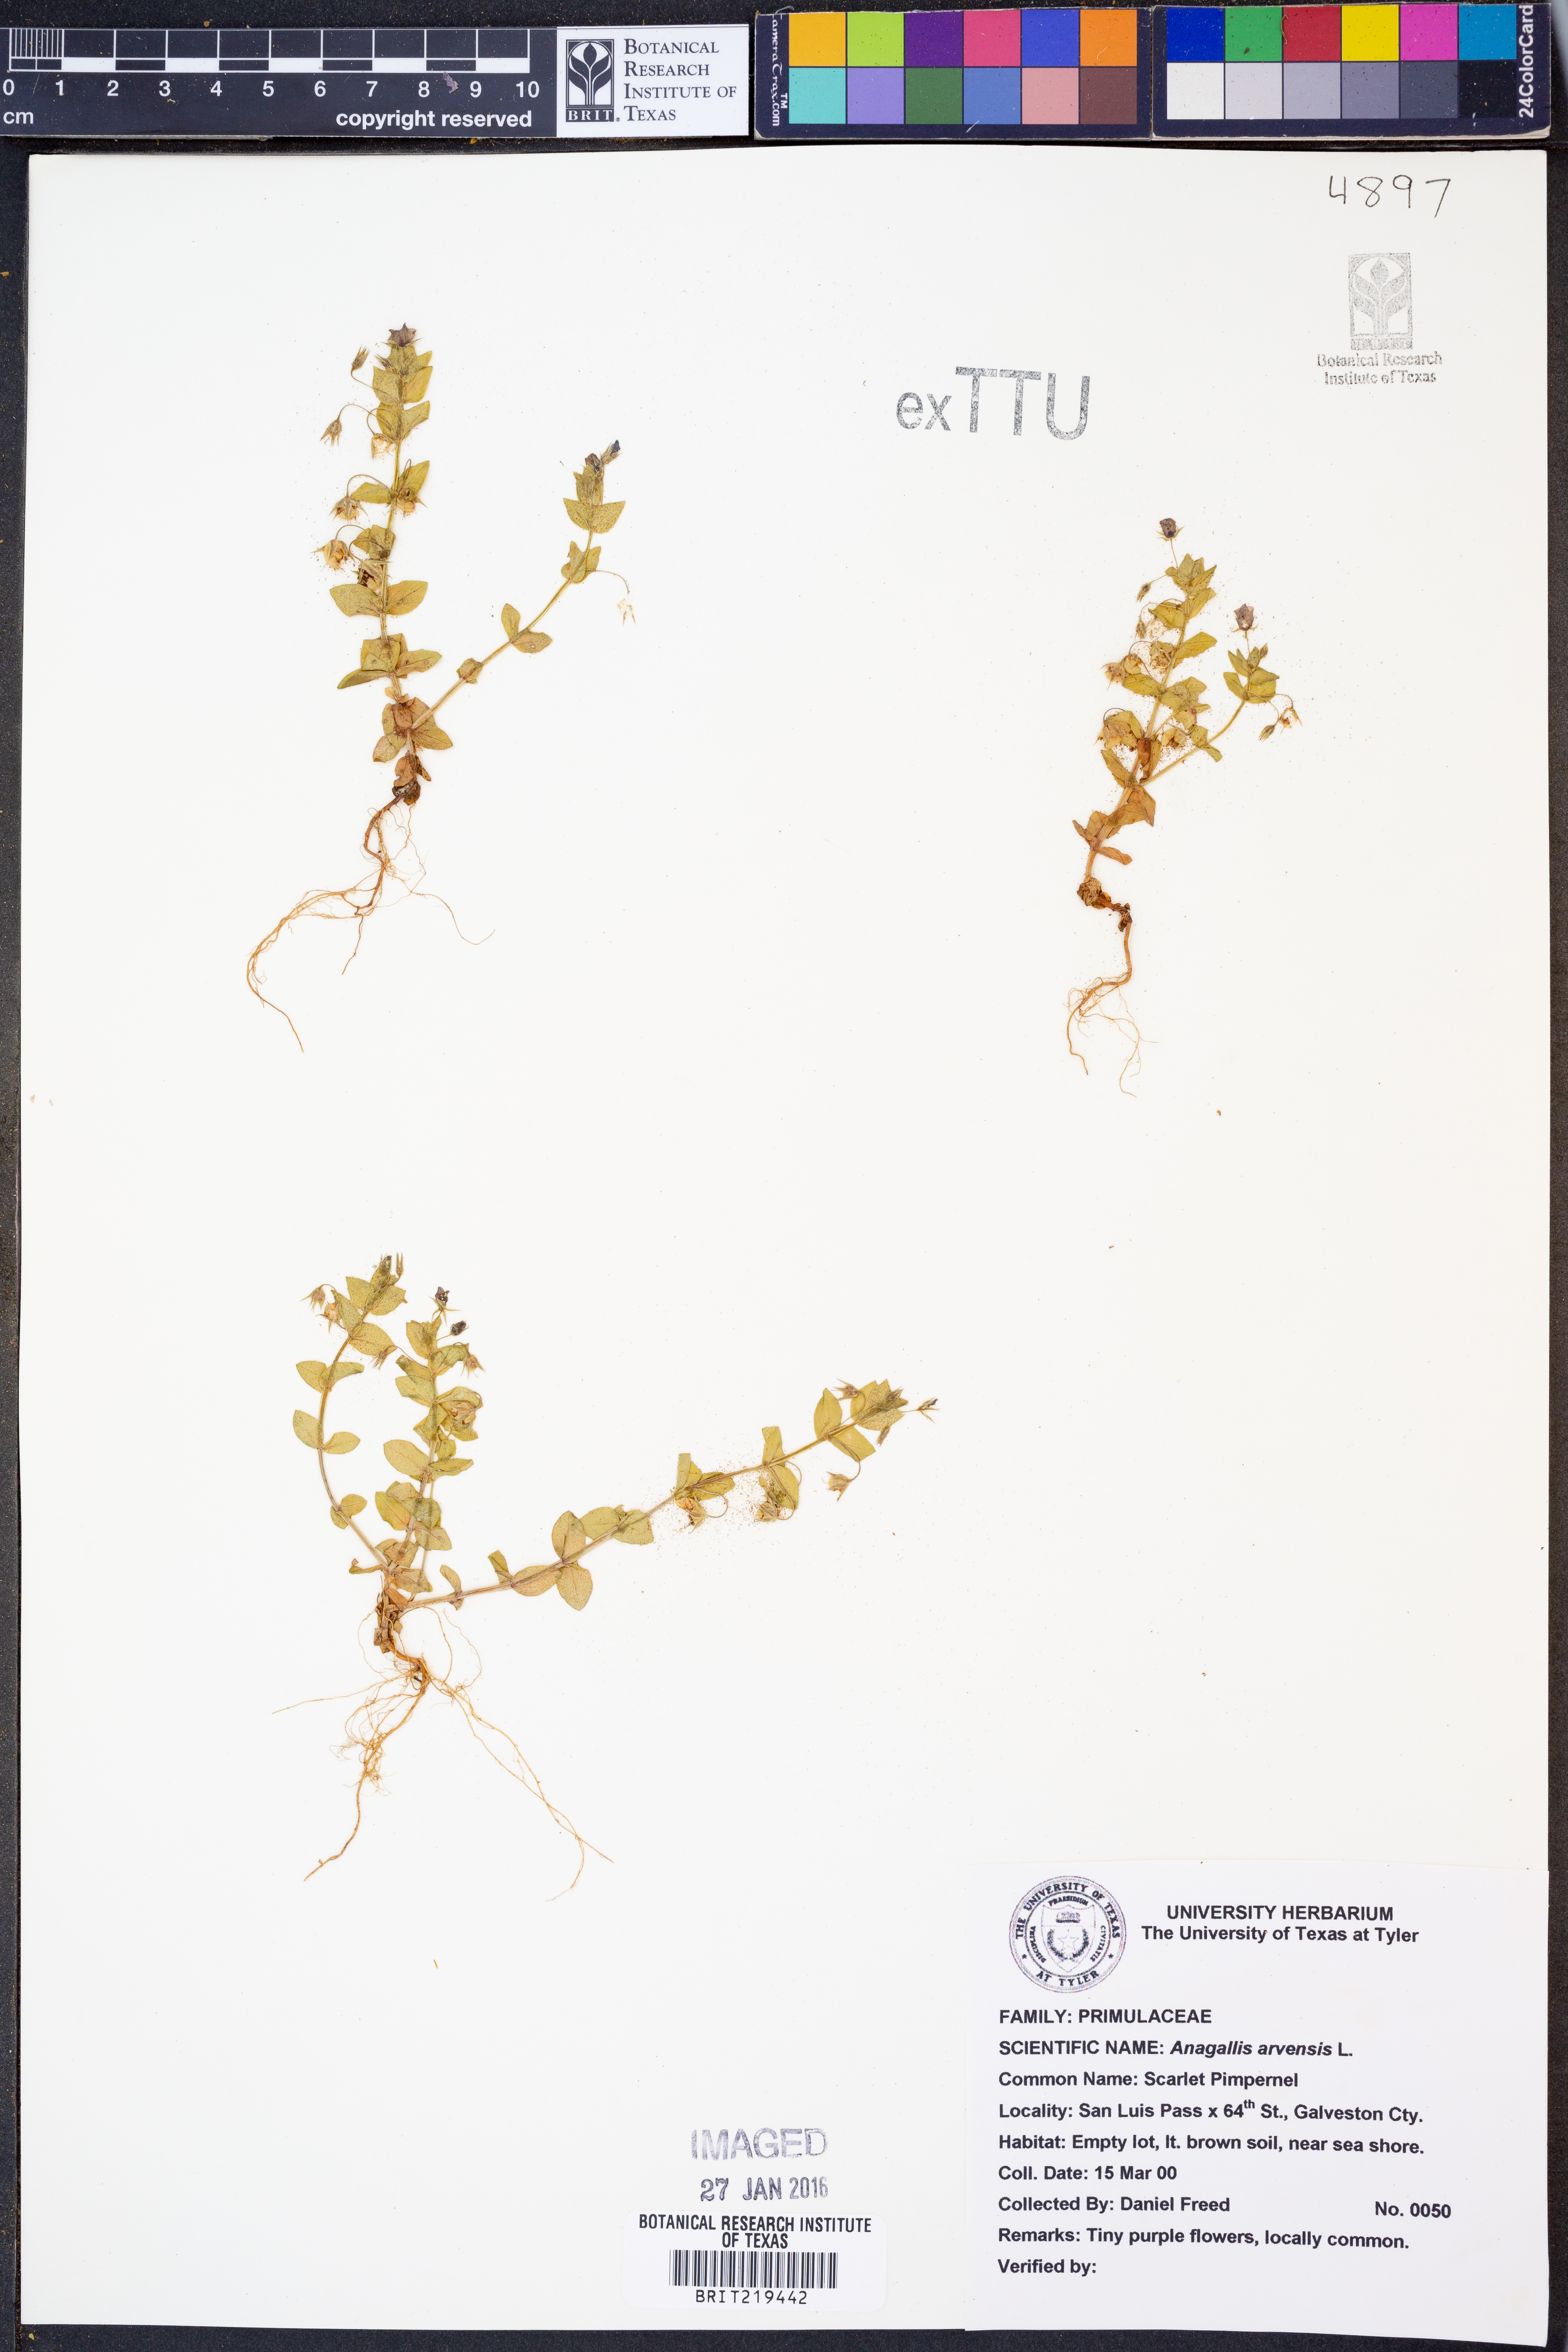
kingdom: Plantae
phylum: Tracheophyta
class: Magnoliopsida
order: Ericales
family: Primulaceae
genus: Lysimachia
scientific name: Lysimachia arvensis
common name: Scarlet pimpernel
